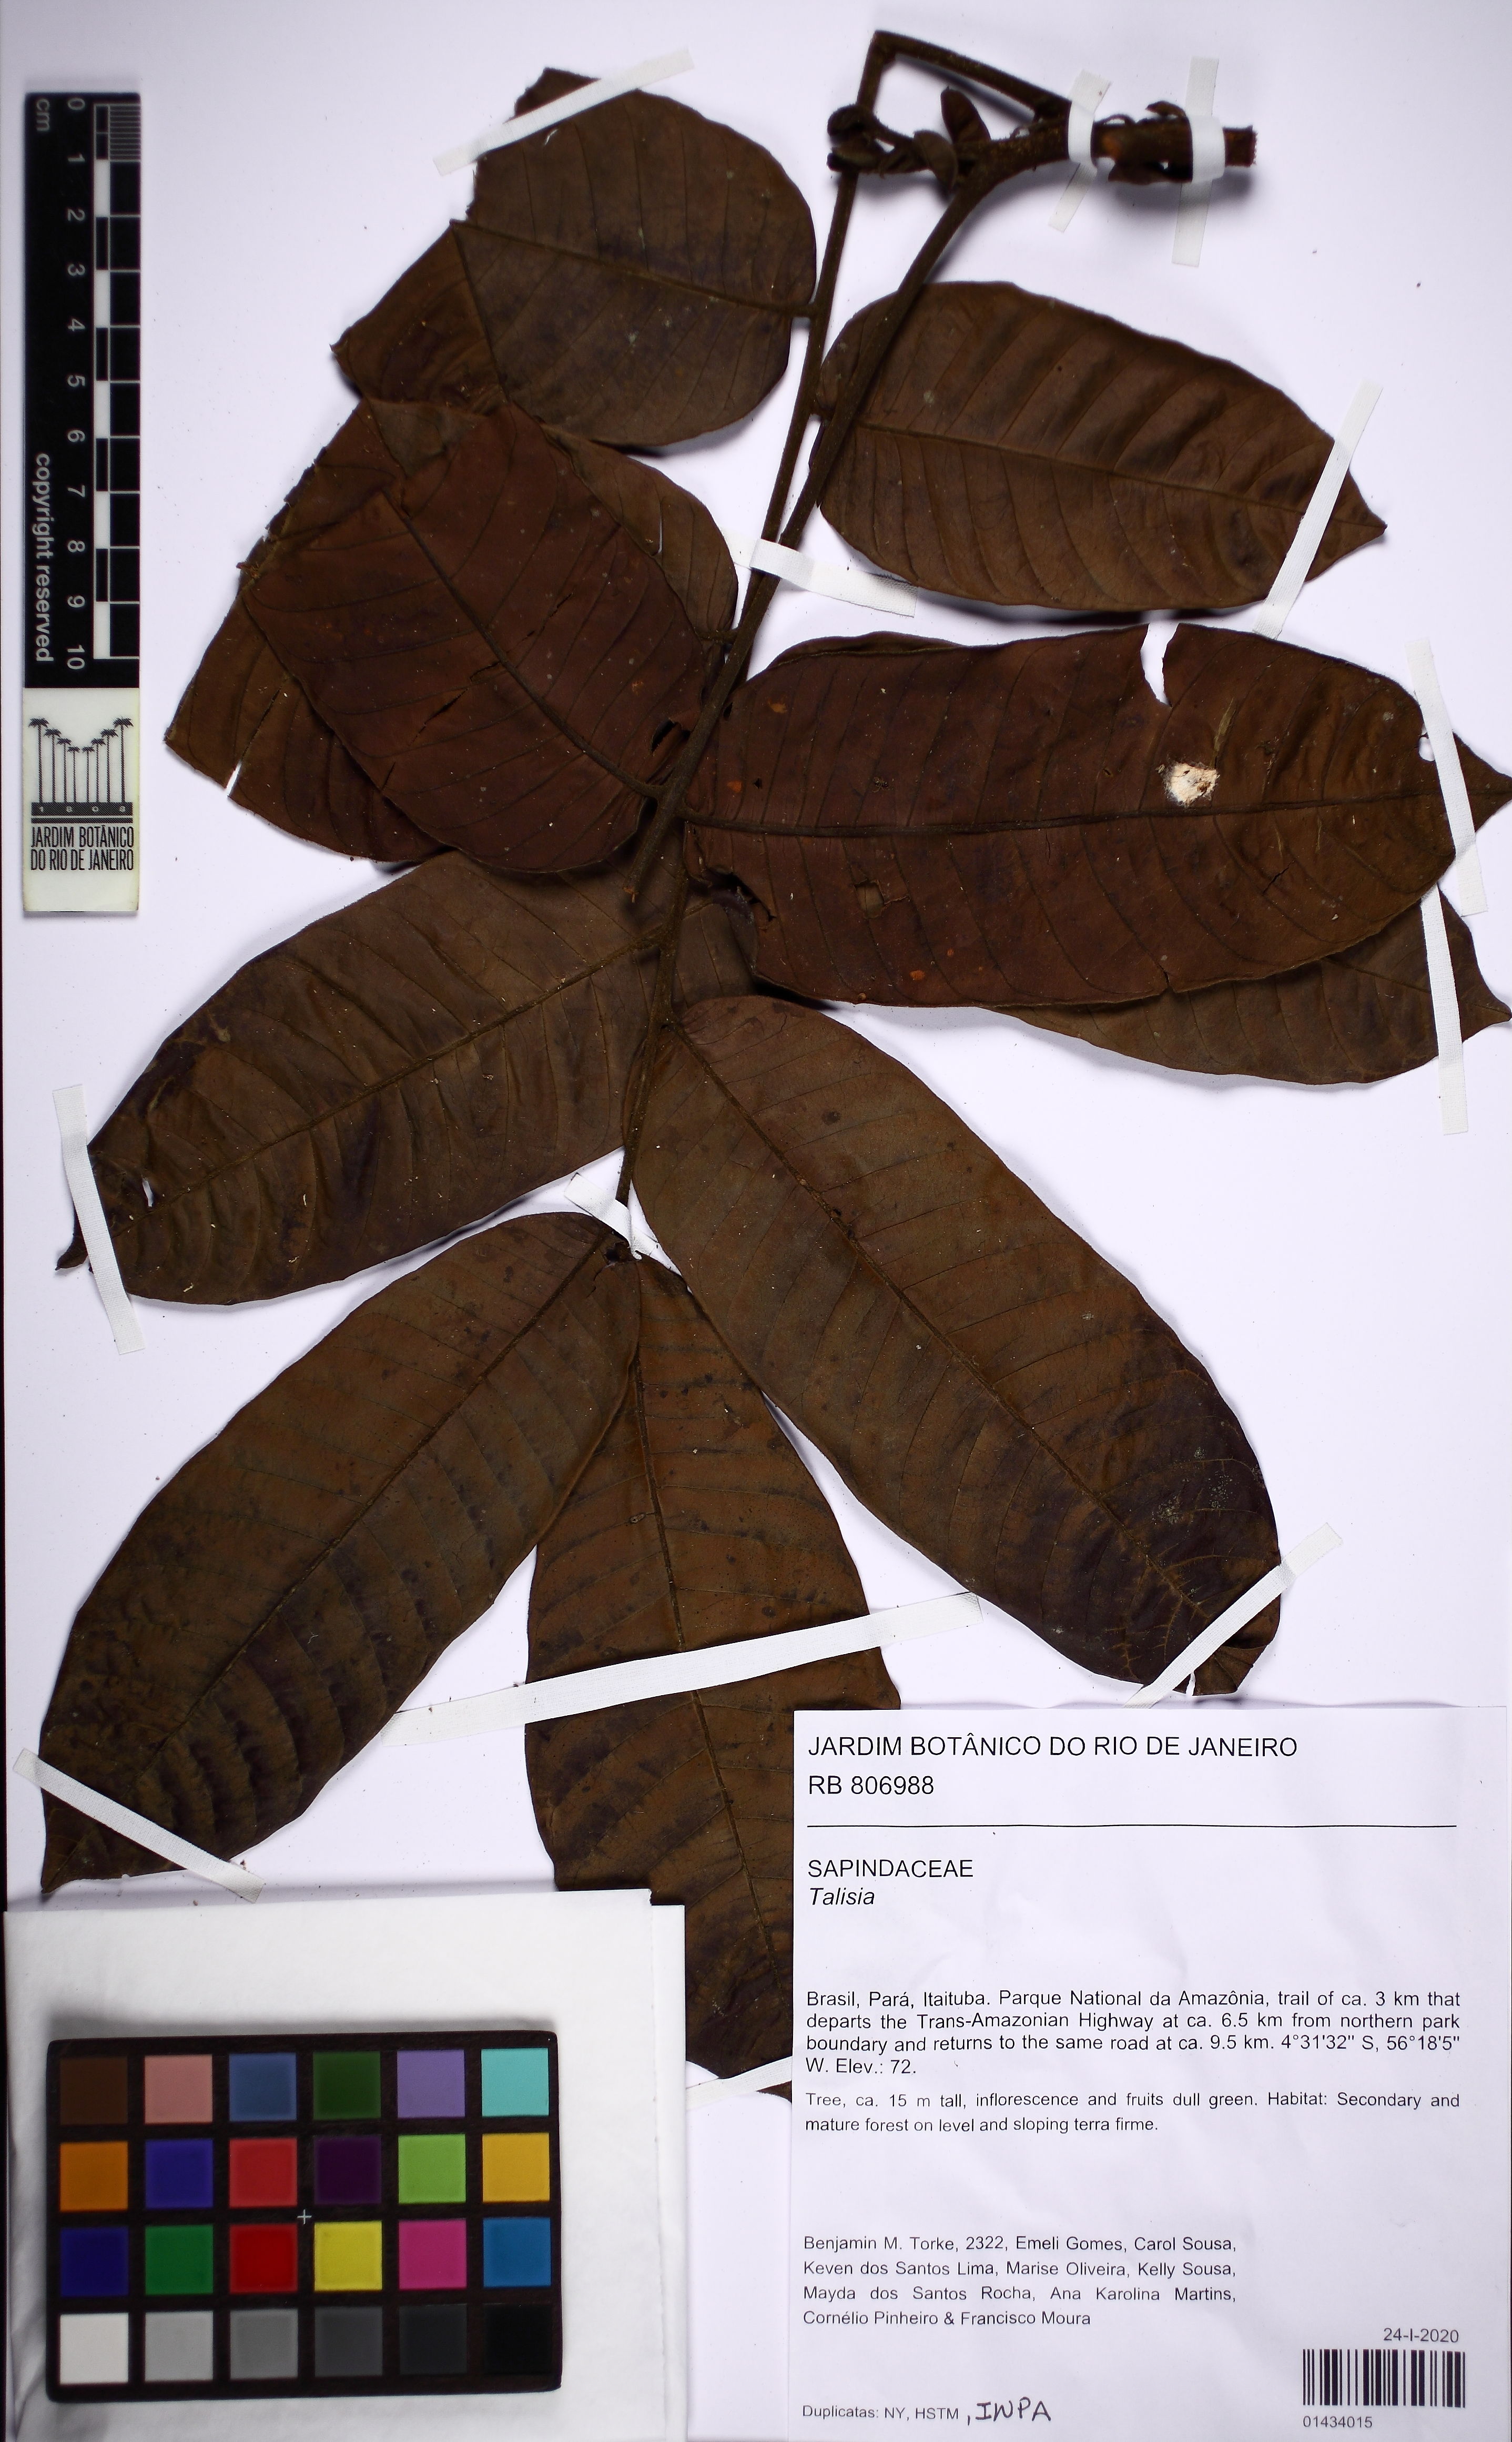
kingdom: Plantae
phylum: Tracheophyta
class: Magnoliopsida
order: Sapindales
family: Sapindaceae
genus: Talisia
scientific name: Talisia
